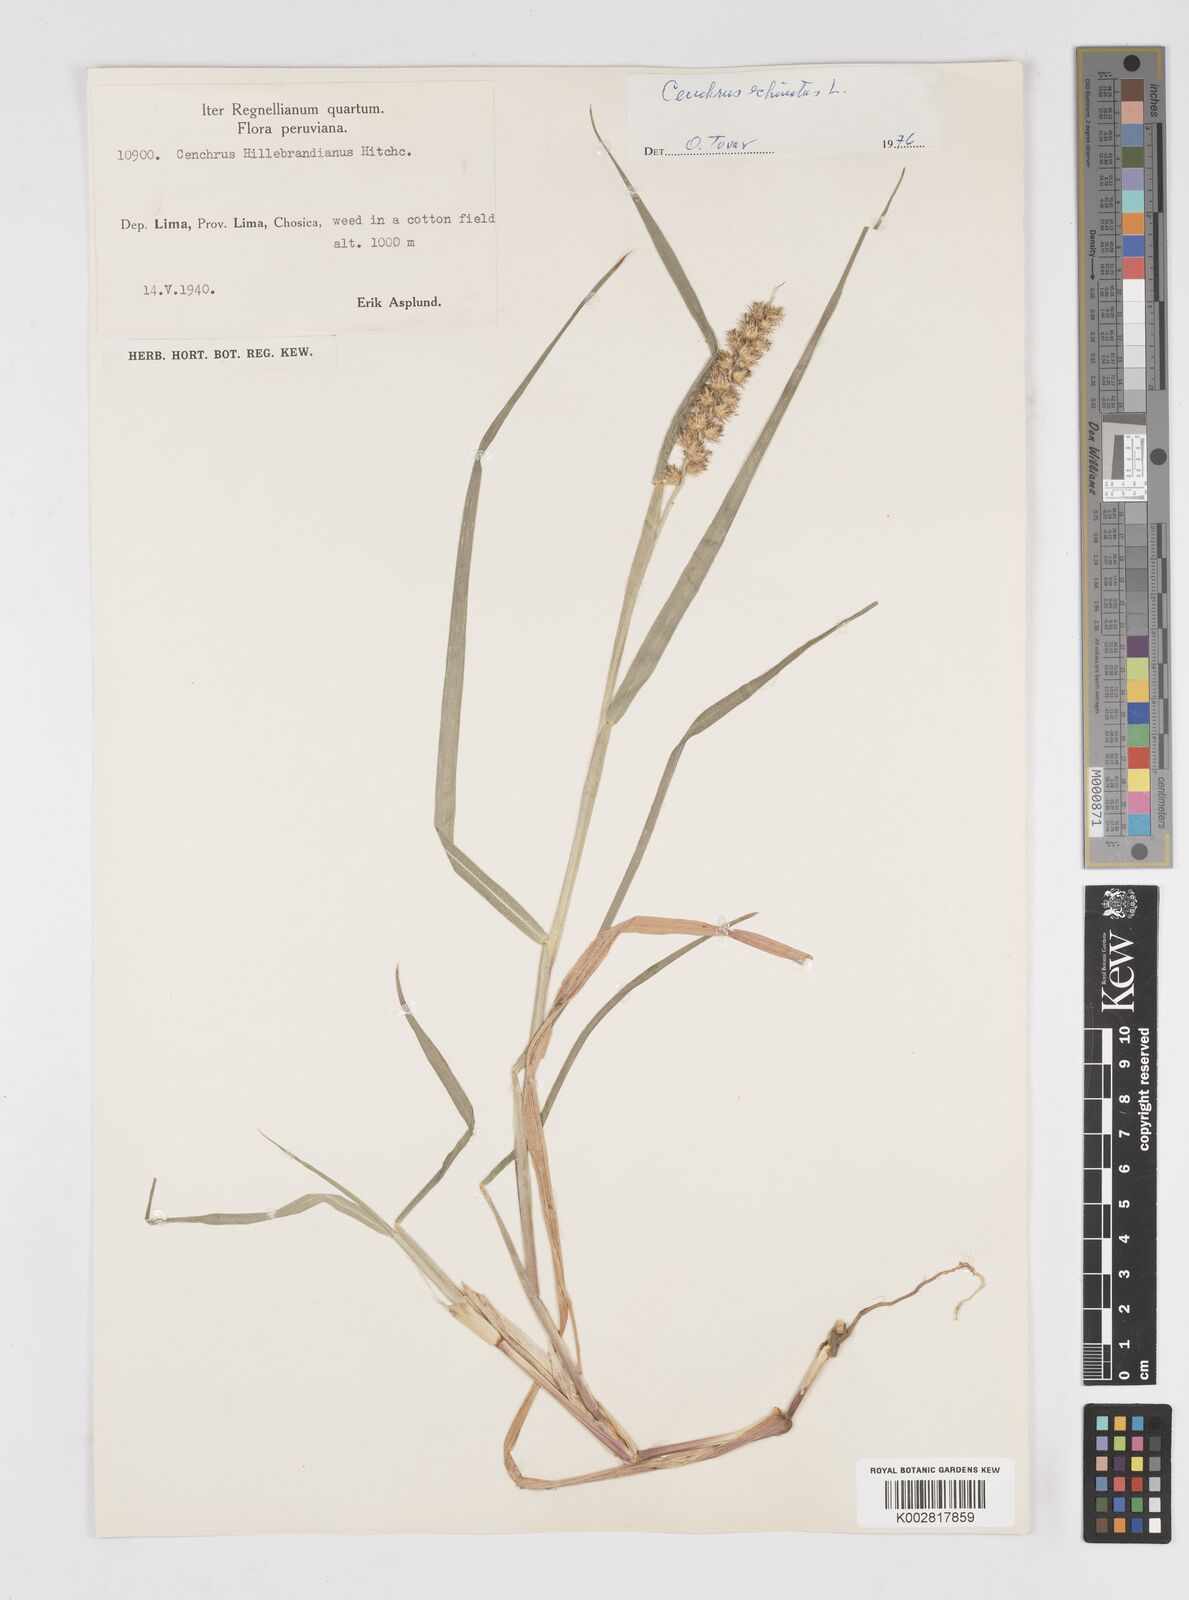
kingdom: Plantae
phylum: Tracheophyta
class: Liliopsida
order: Poales
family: Poaceae
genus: Cenchrus
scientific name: Cenchrus
